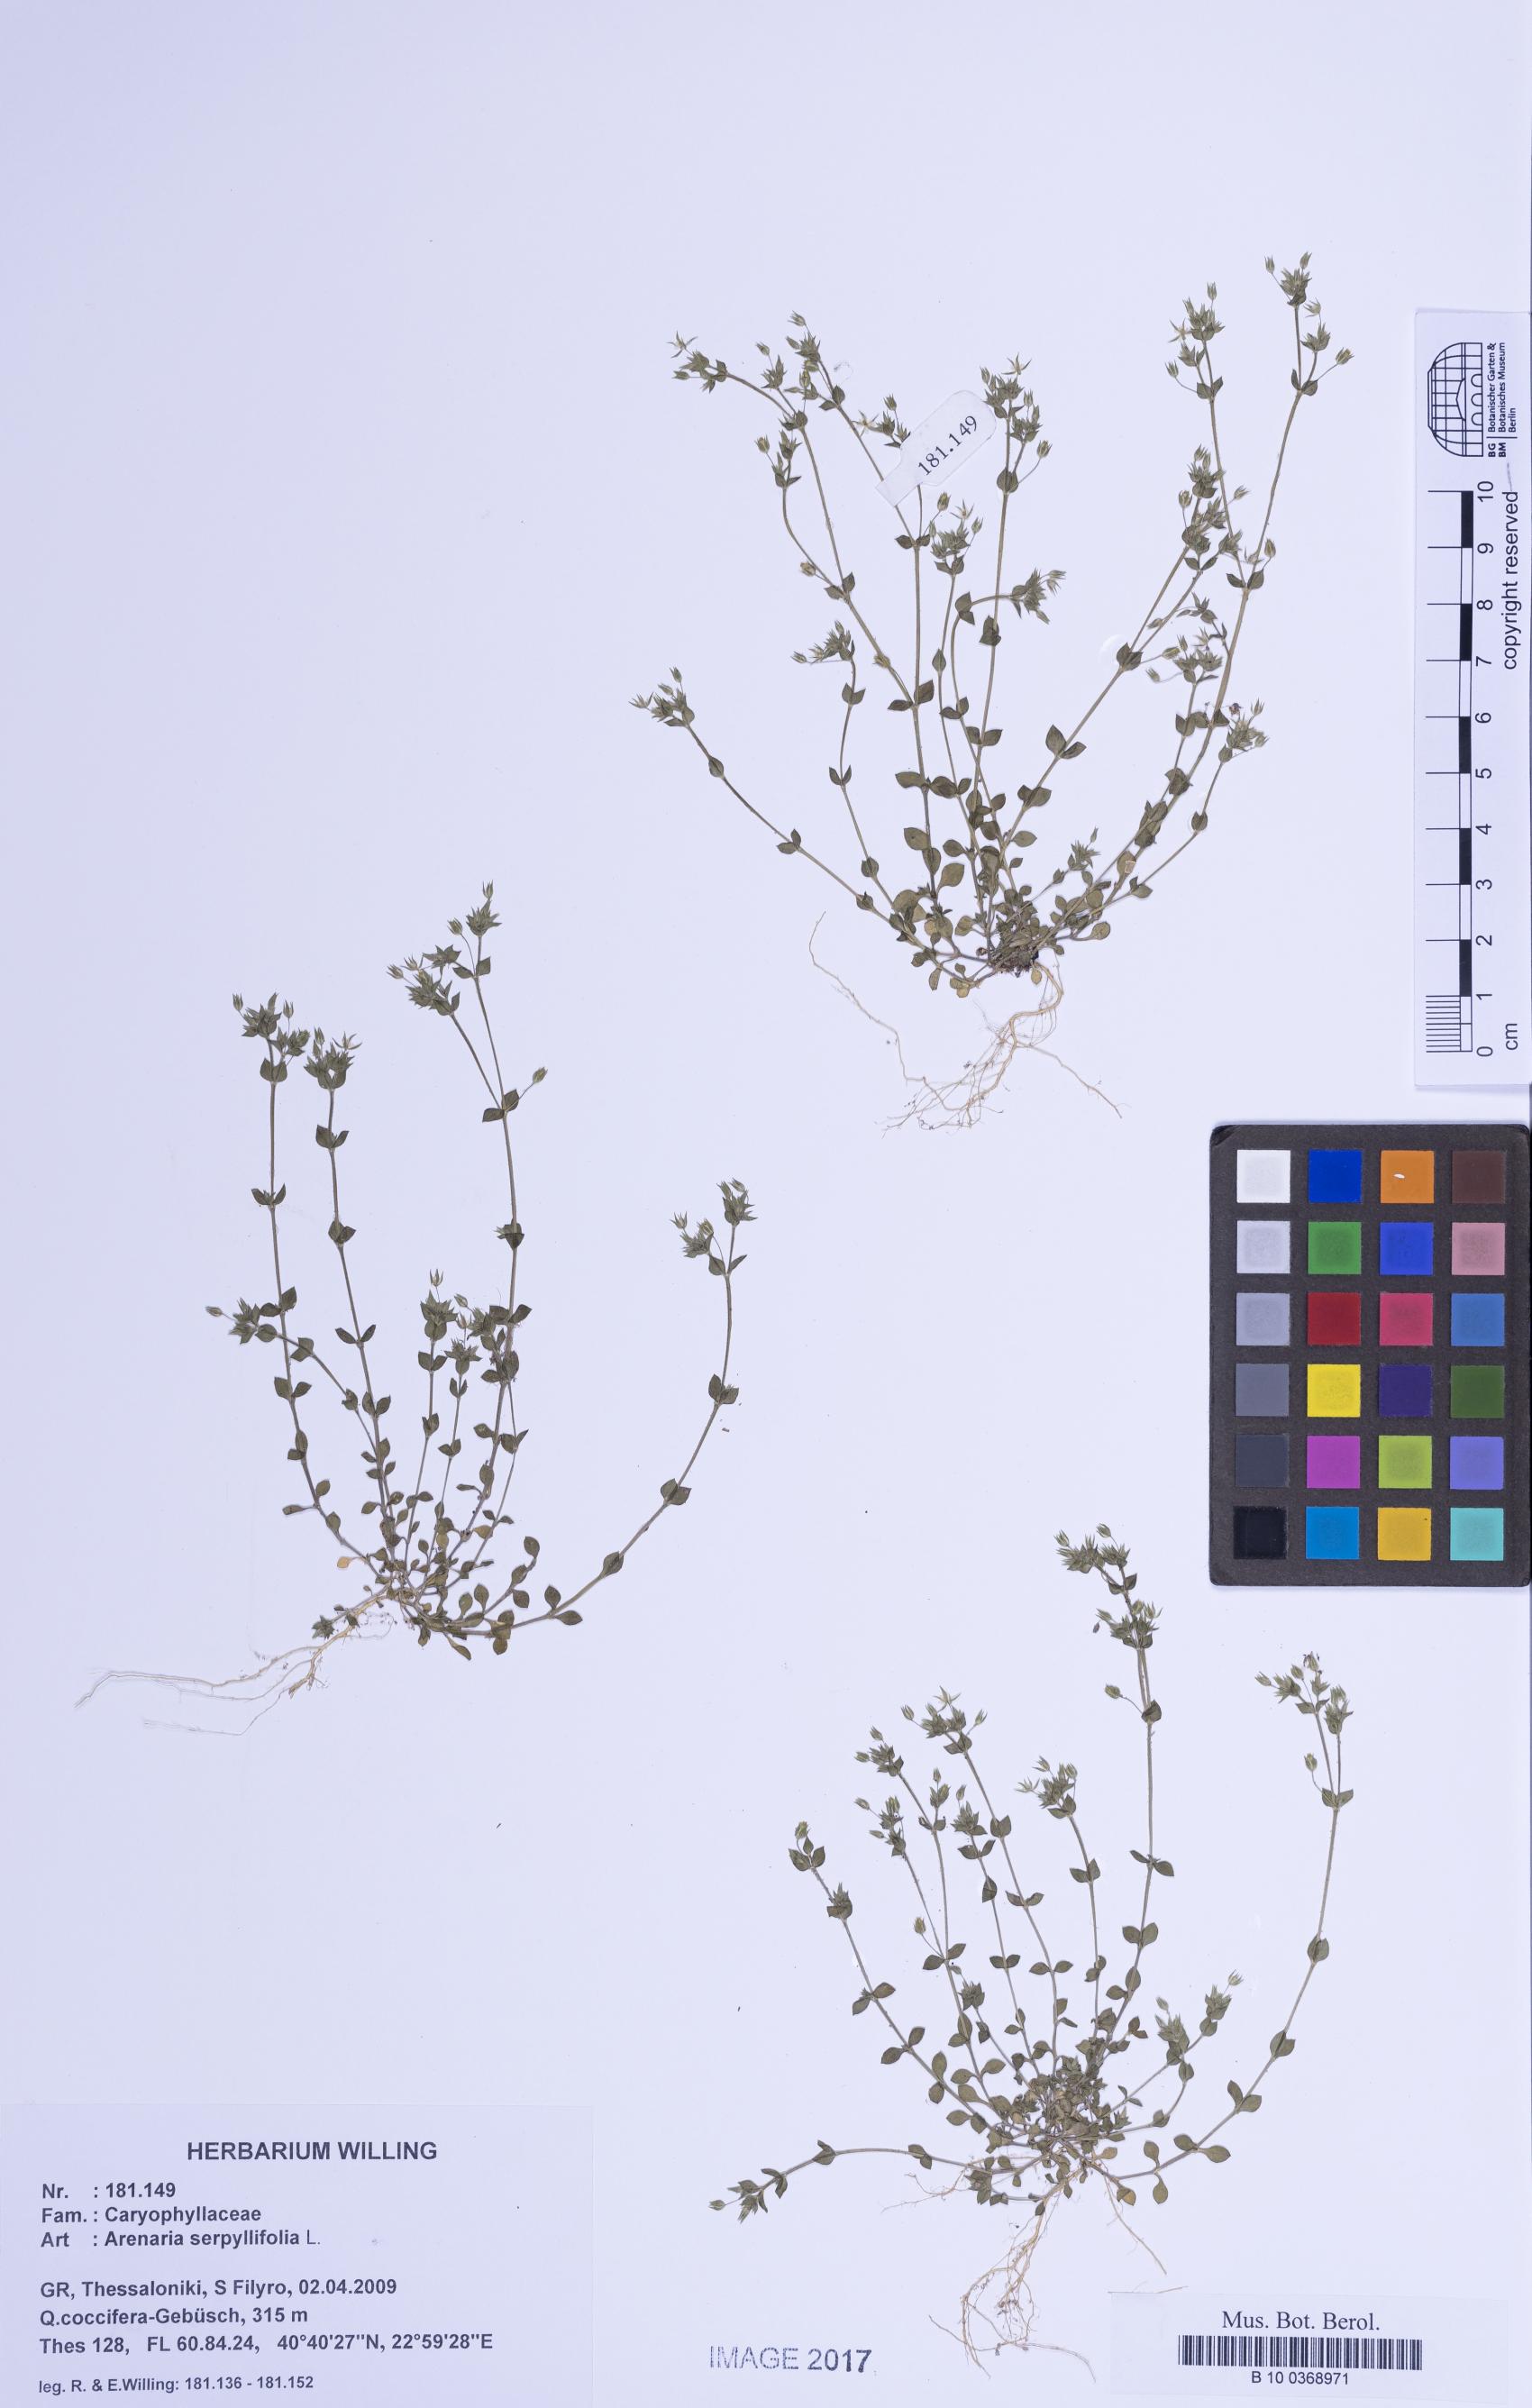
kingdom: Plantae
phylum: Tracheophyta
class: Magnoliopsida
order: Caryophyllales
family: Caryophyllaceae
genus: Arenaria
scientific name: Arenaria serpyllifolia
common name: Thyme-leaved sandwort
